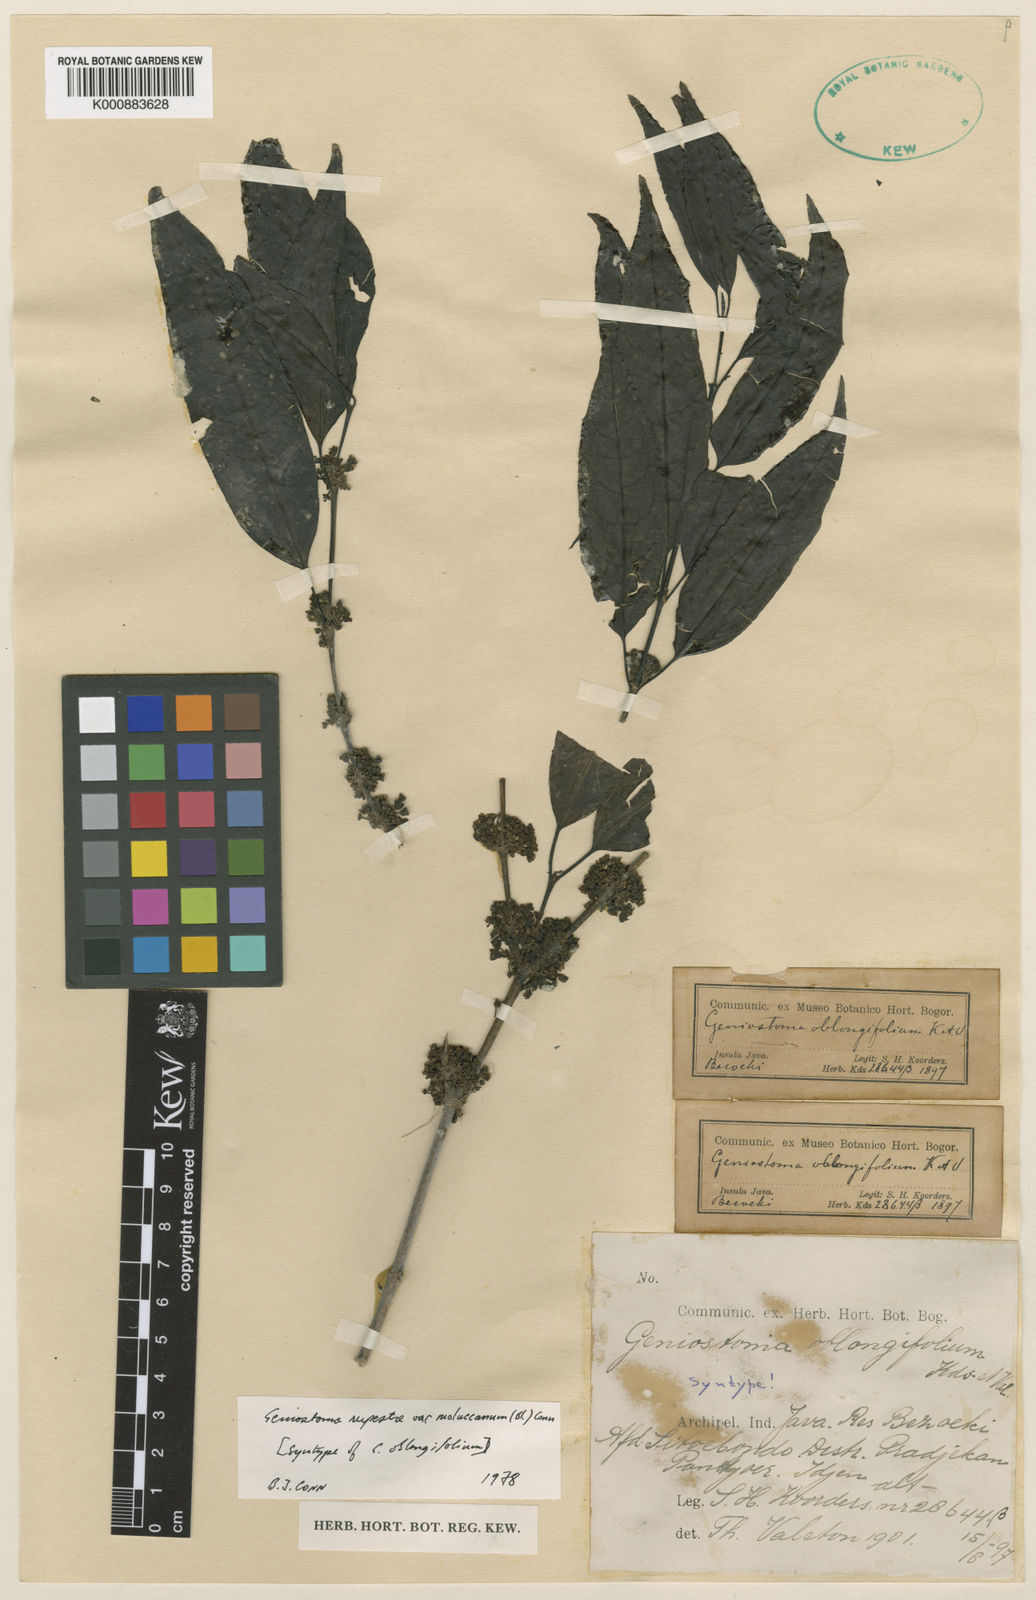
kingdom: Plantae
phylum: Tracheophyta
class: Magnoliopsida
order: Gentianales
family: Loganiaceae
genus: Geniostoma
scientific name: Geniostoma rupestre
